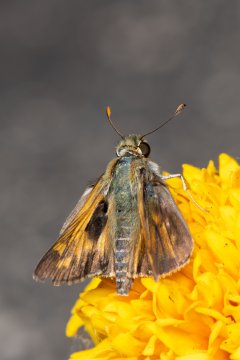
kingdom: Animalia
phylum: Arthropoda
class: Insecta
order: Lepidoptera
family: Hesperiidae
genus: Atalopedes
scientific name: Atalopedes campestris
